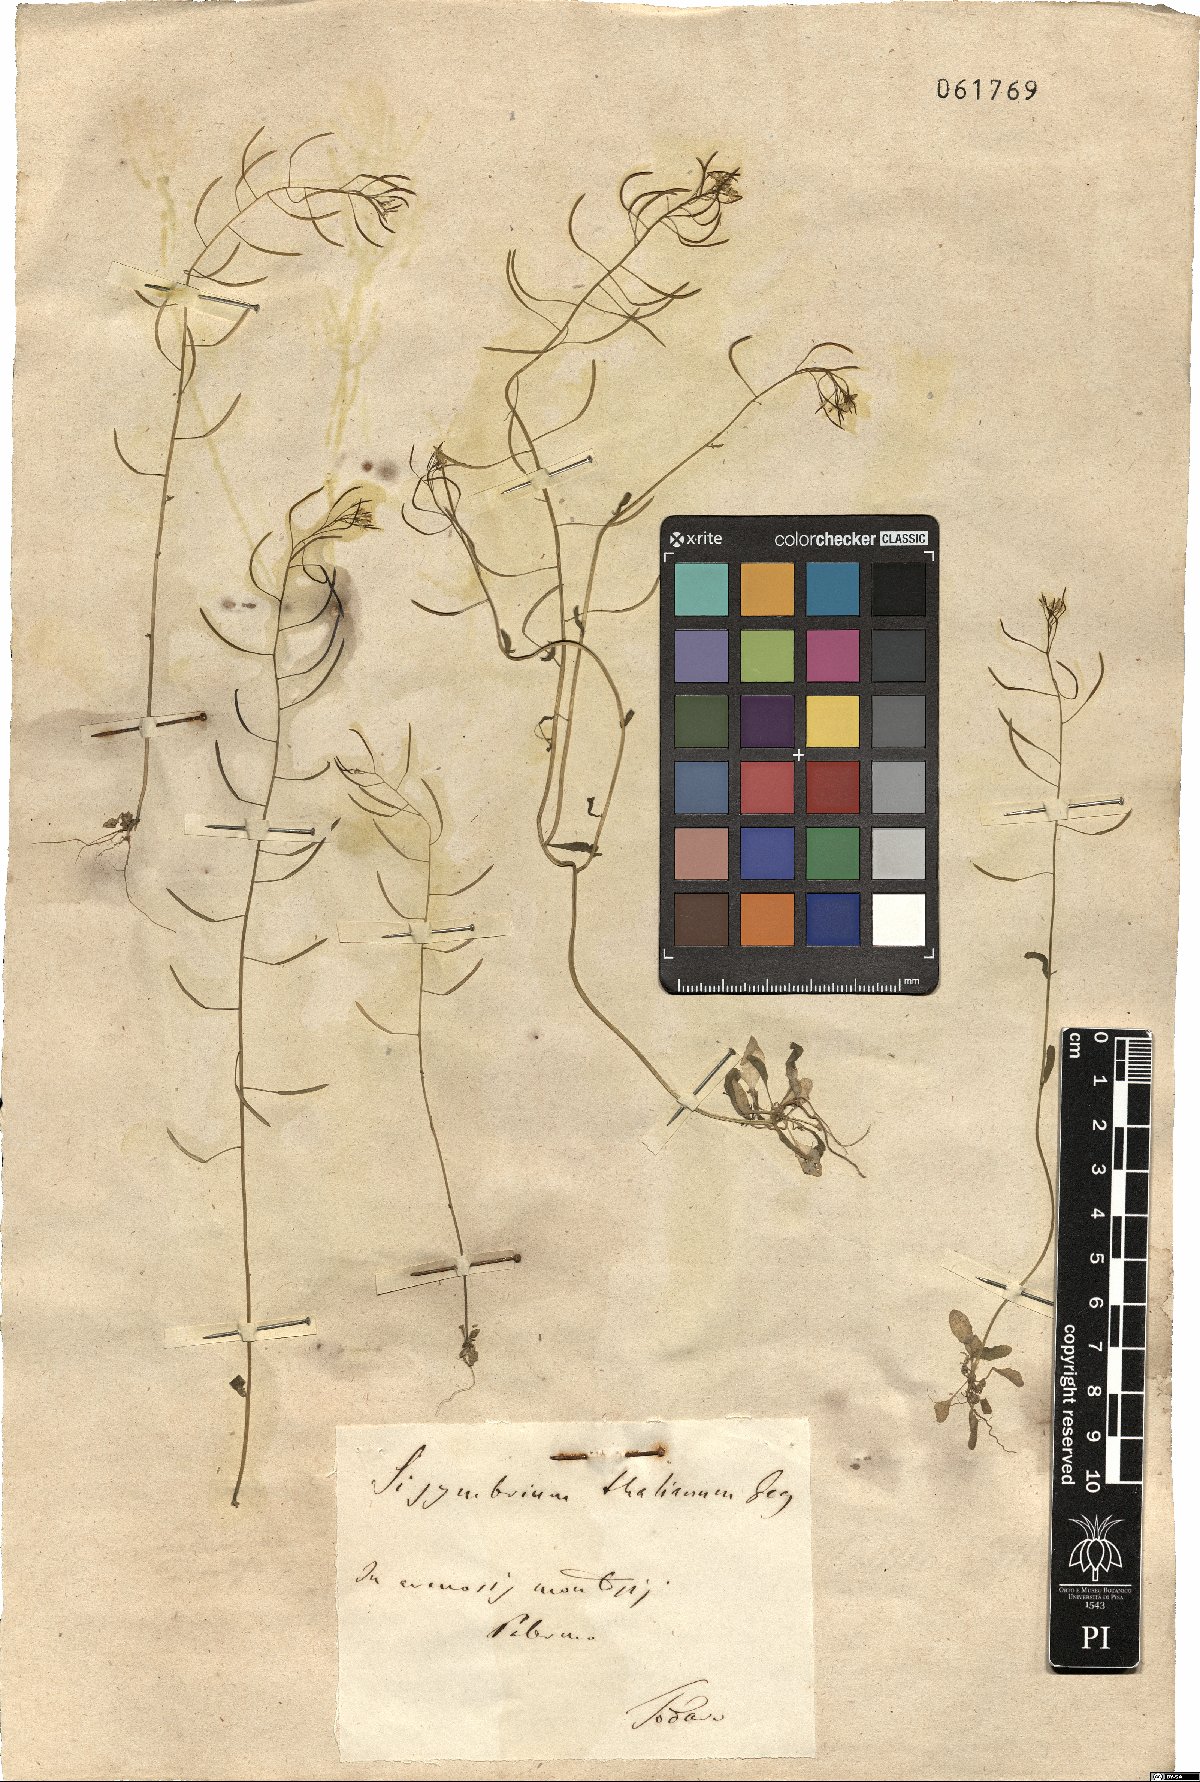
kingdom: Plantae
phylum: Tracheophyta
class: Magnoliopsida
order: Brassicales
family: Brassicaceae
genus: Arabidopsis
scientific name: Arabidopsis thaliana
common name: Thale cress
